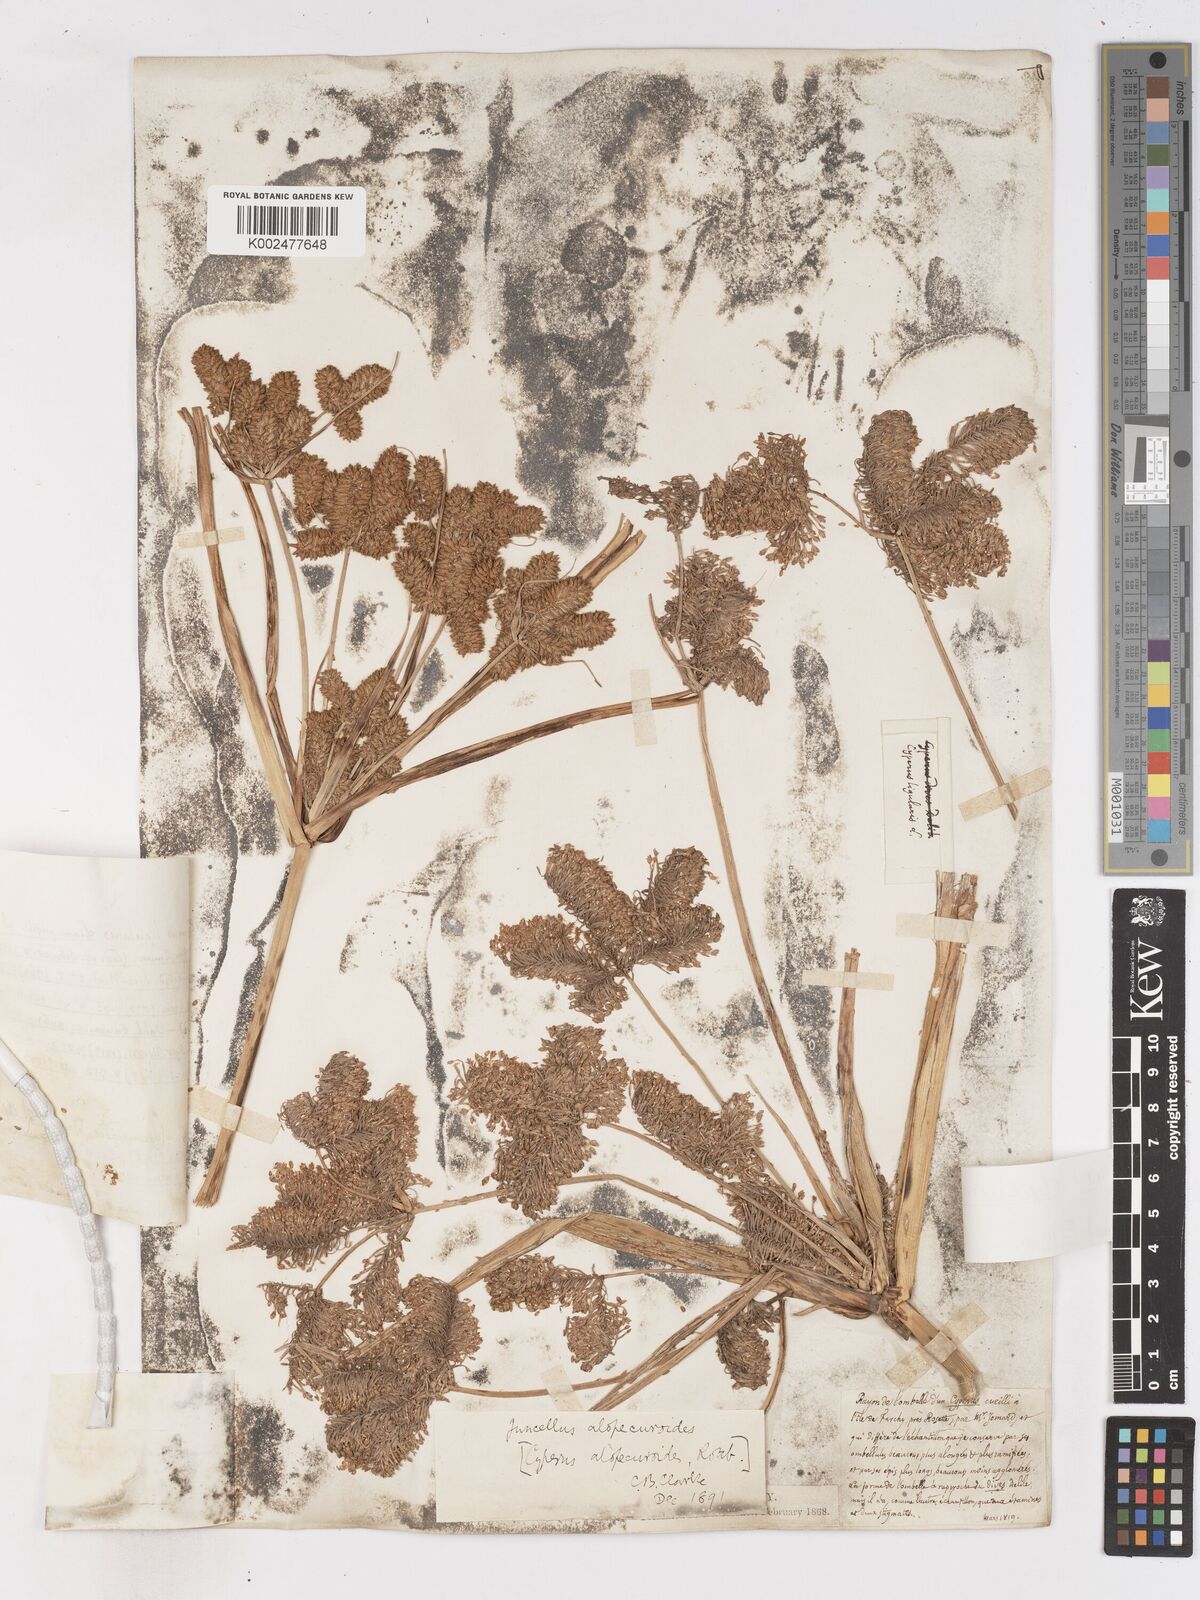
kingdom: Plantae
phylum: Tracheophyta
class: Liliopsida
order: Poales
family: Cyperaceae
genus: Cyperus
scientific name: Cyperus alopecuroides
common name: Foxtail flatsedge
